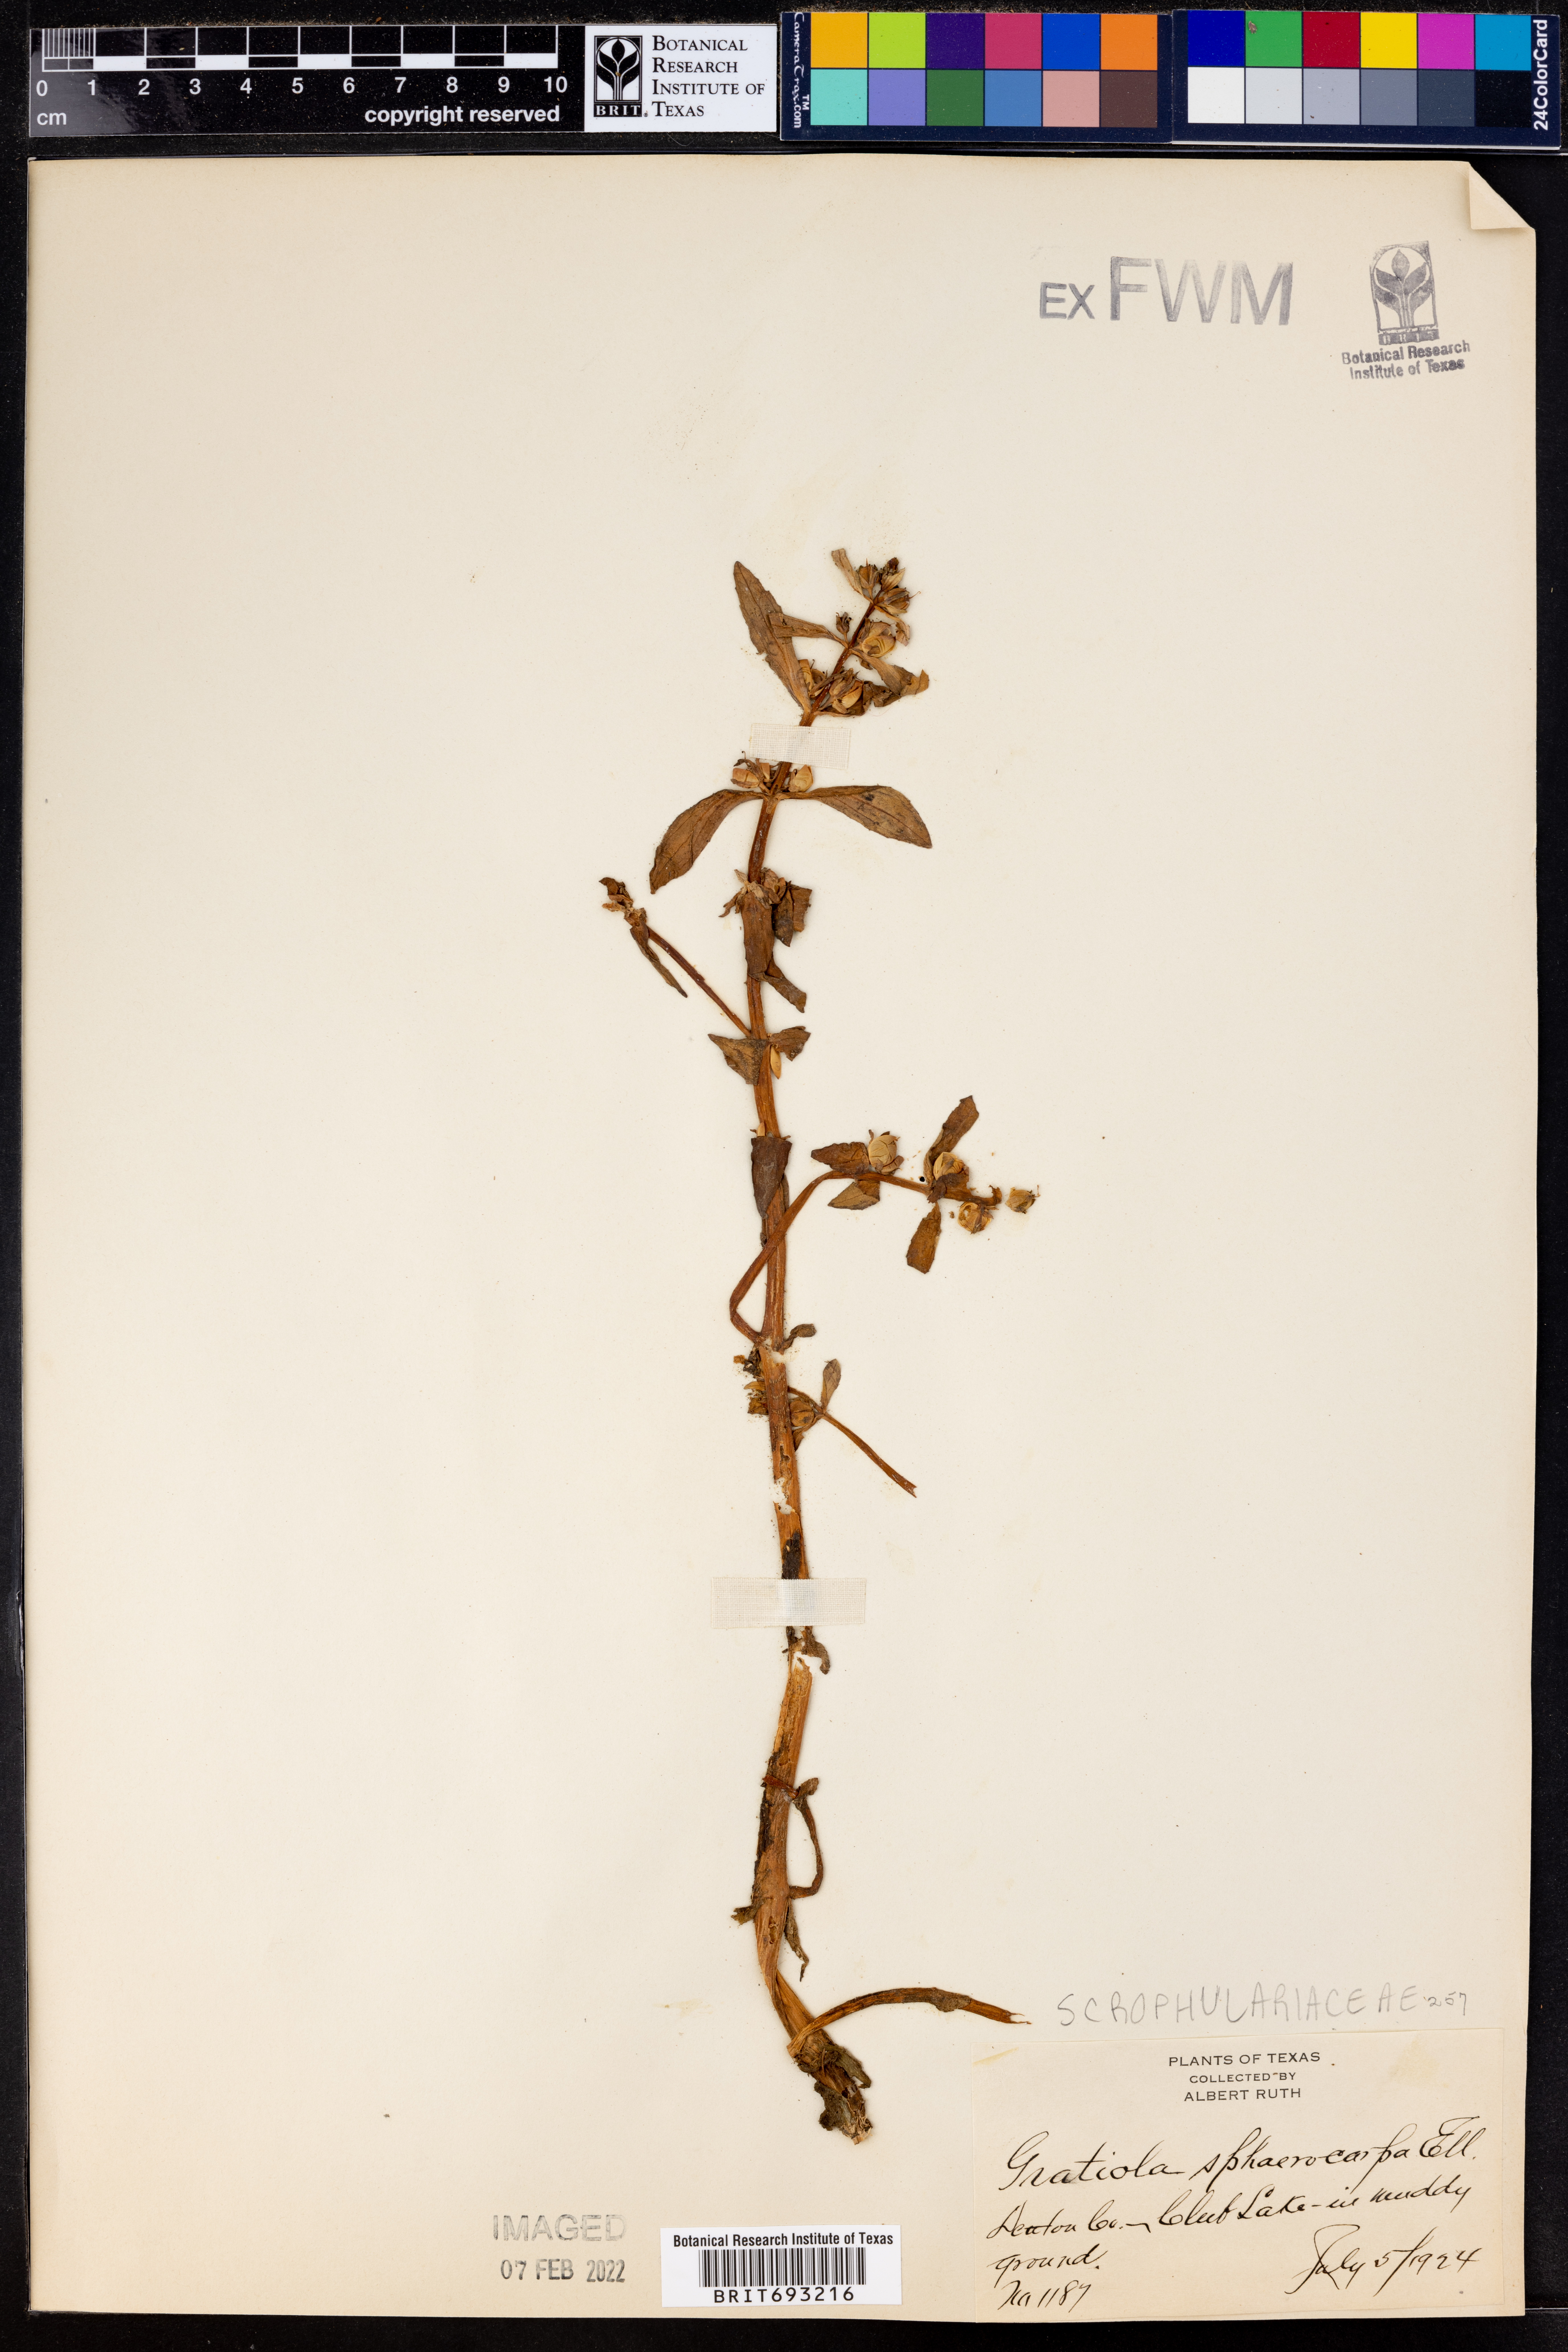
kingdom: Plantae
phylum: Tracheophyta
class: Magnoliopsida
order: Lamiales
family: Plantaginaceae
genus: Gratiola
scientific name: Gratiola virginiana
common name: Roundfruit hedgehyssop
